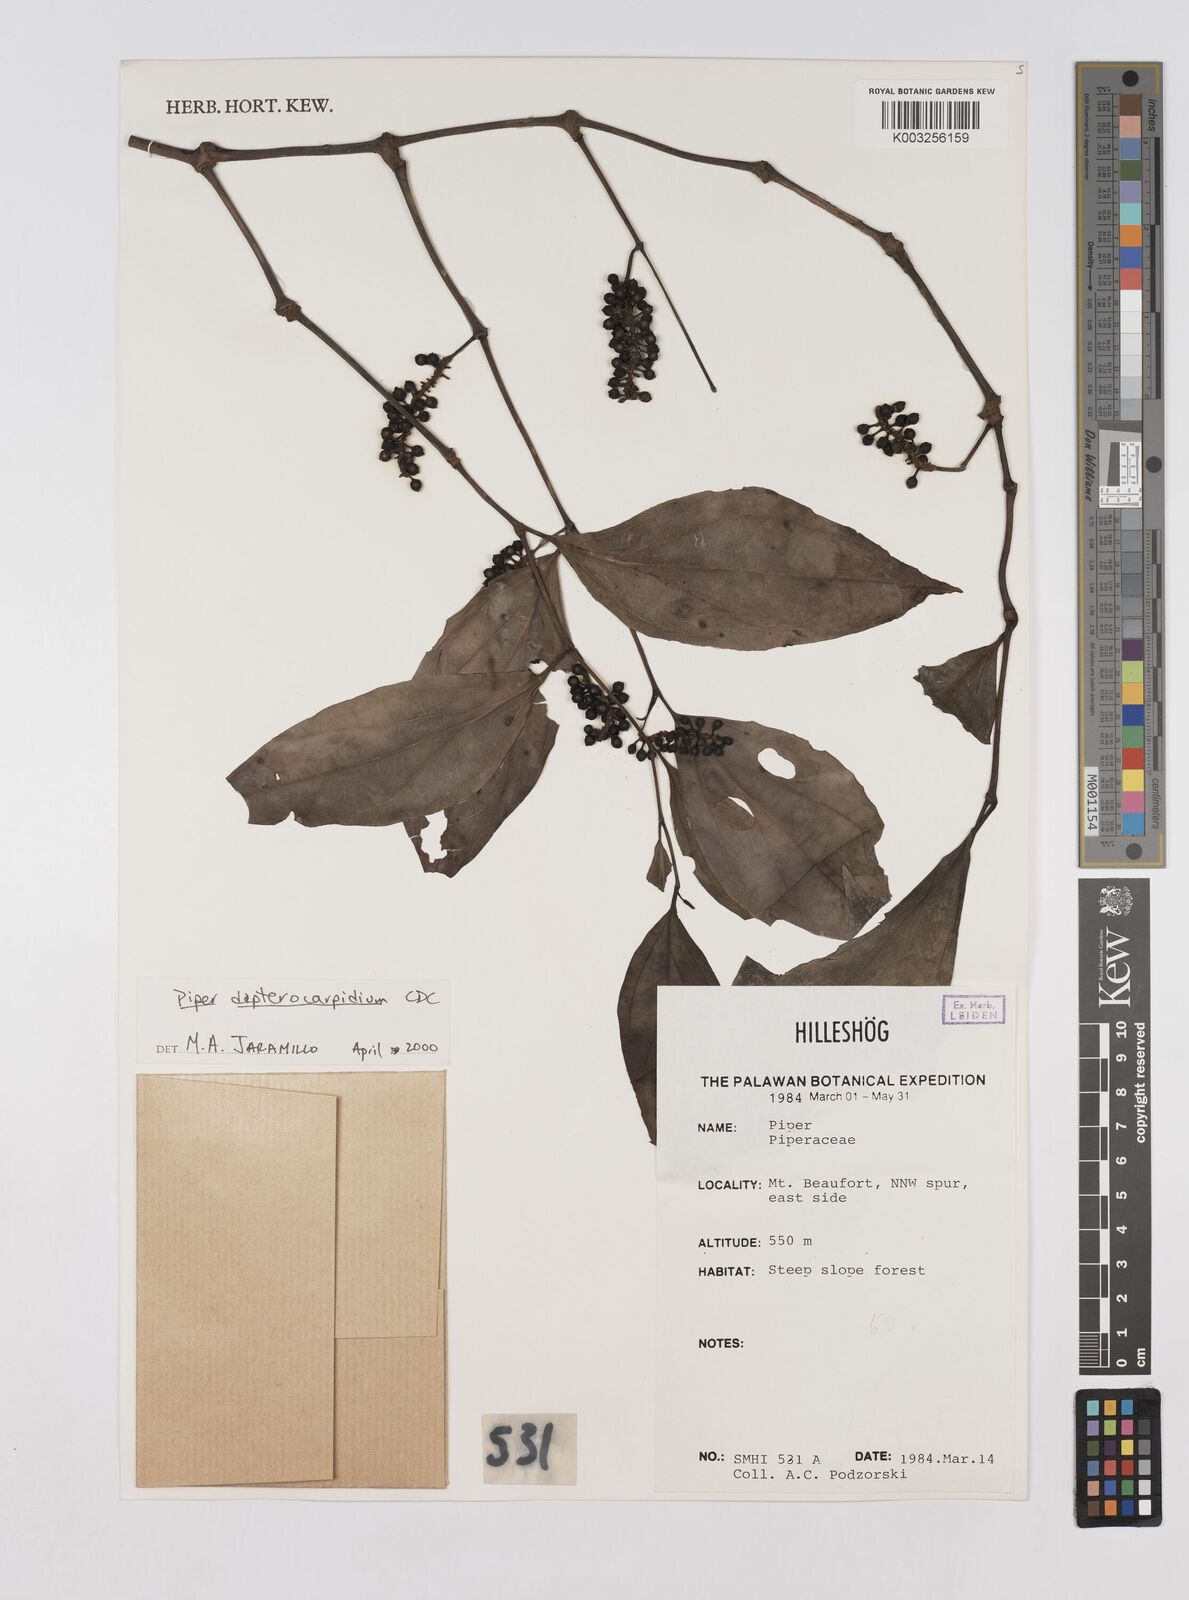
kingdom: Plantae
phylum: Tracheophyta
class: Magnoliopsida
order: Piperales
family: Piperaceae
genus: Piper
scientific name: Piper
